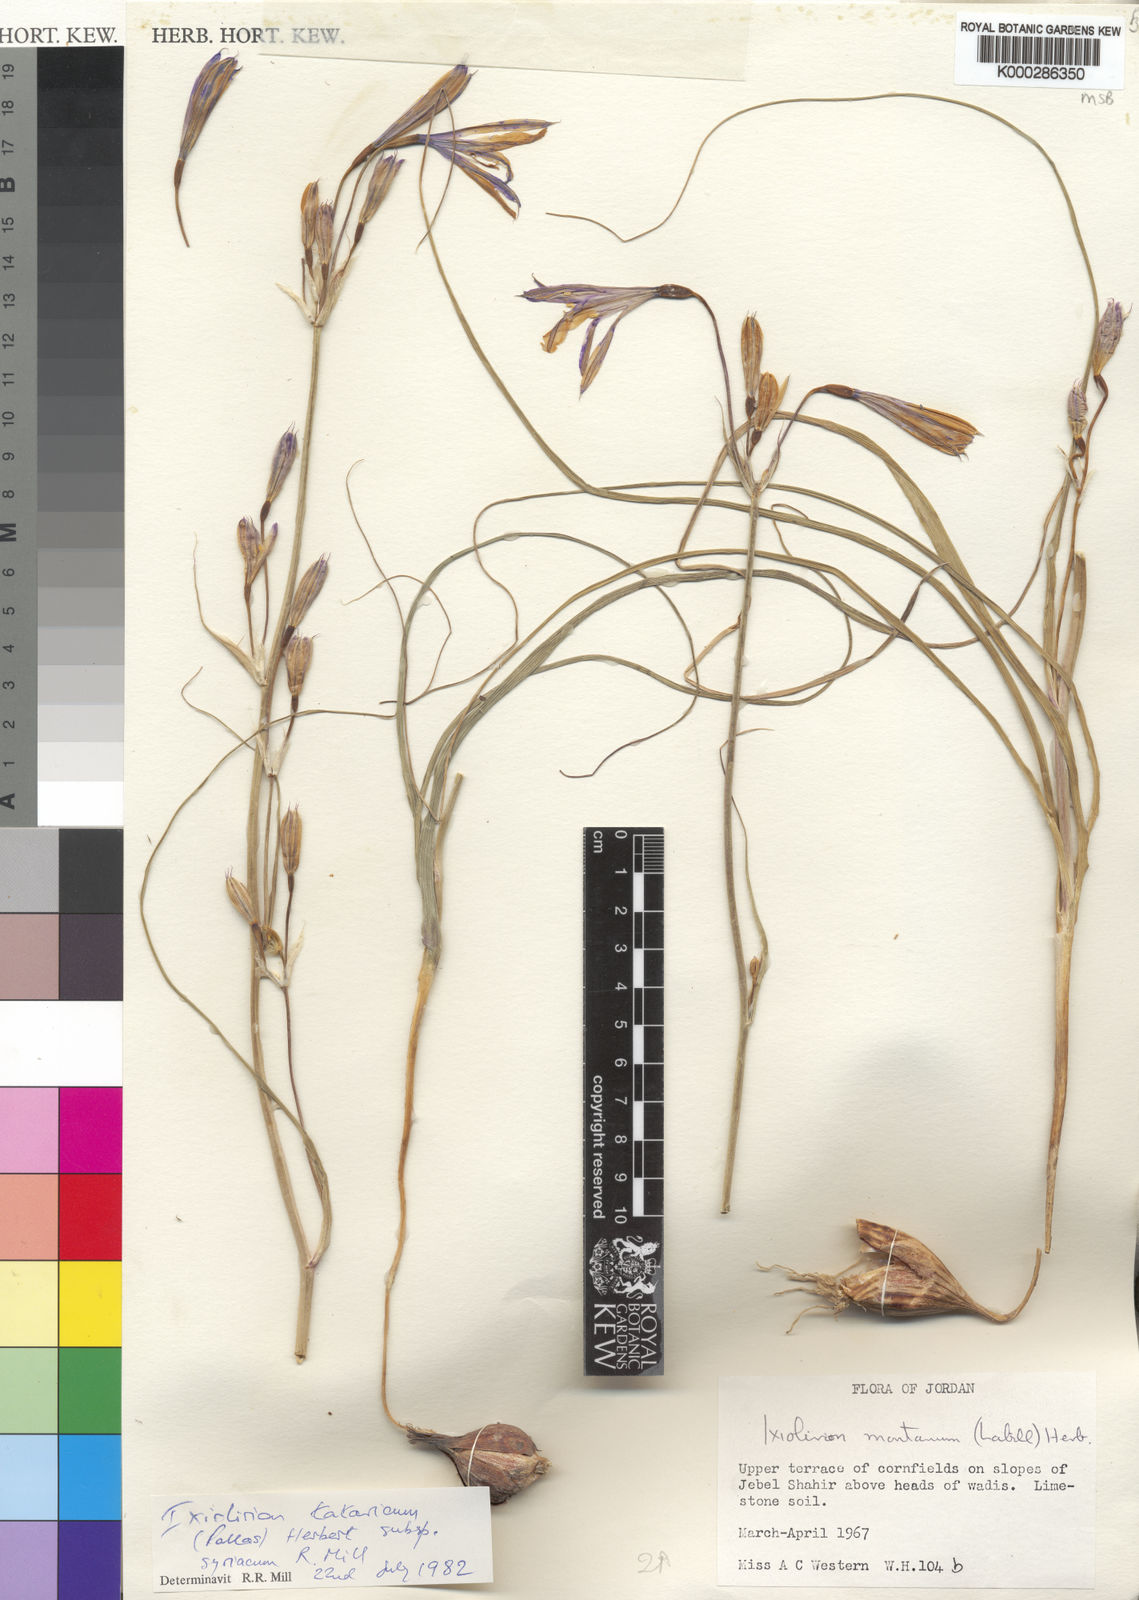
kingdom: Plantae
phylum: Tracheophyta
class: Liliopsida
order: Asparagales
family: Ixioliriaceae
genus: Ixiolirion
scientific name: Ixiolirion tataricum
